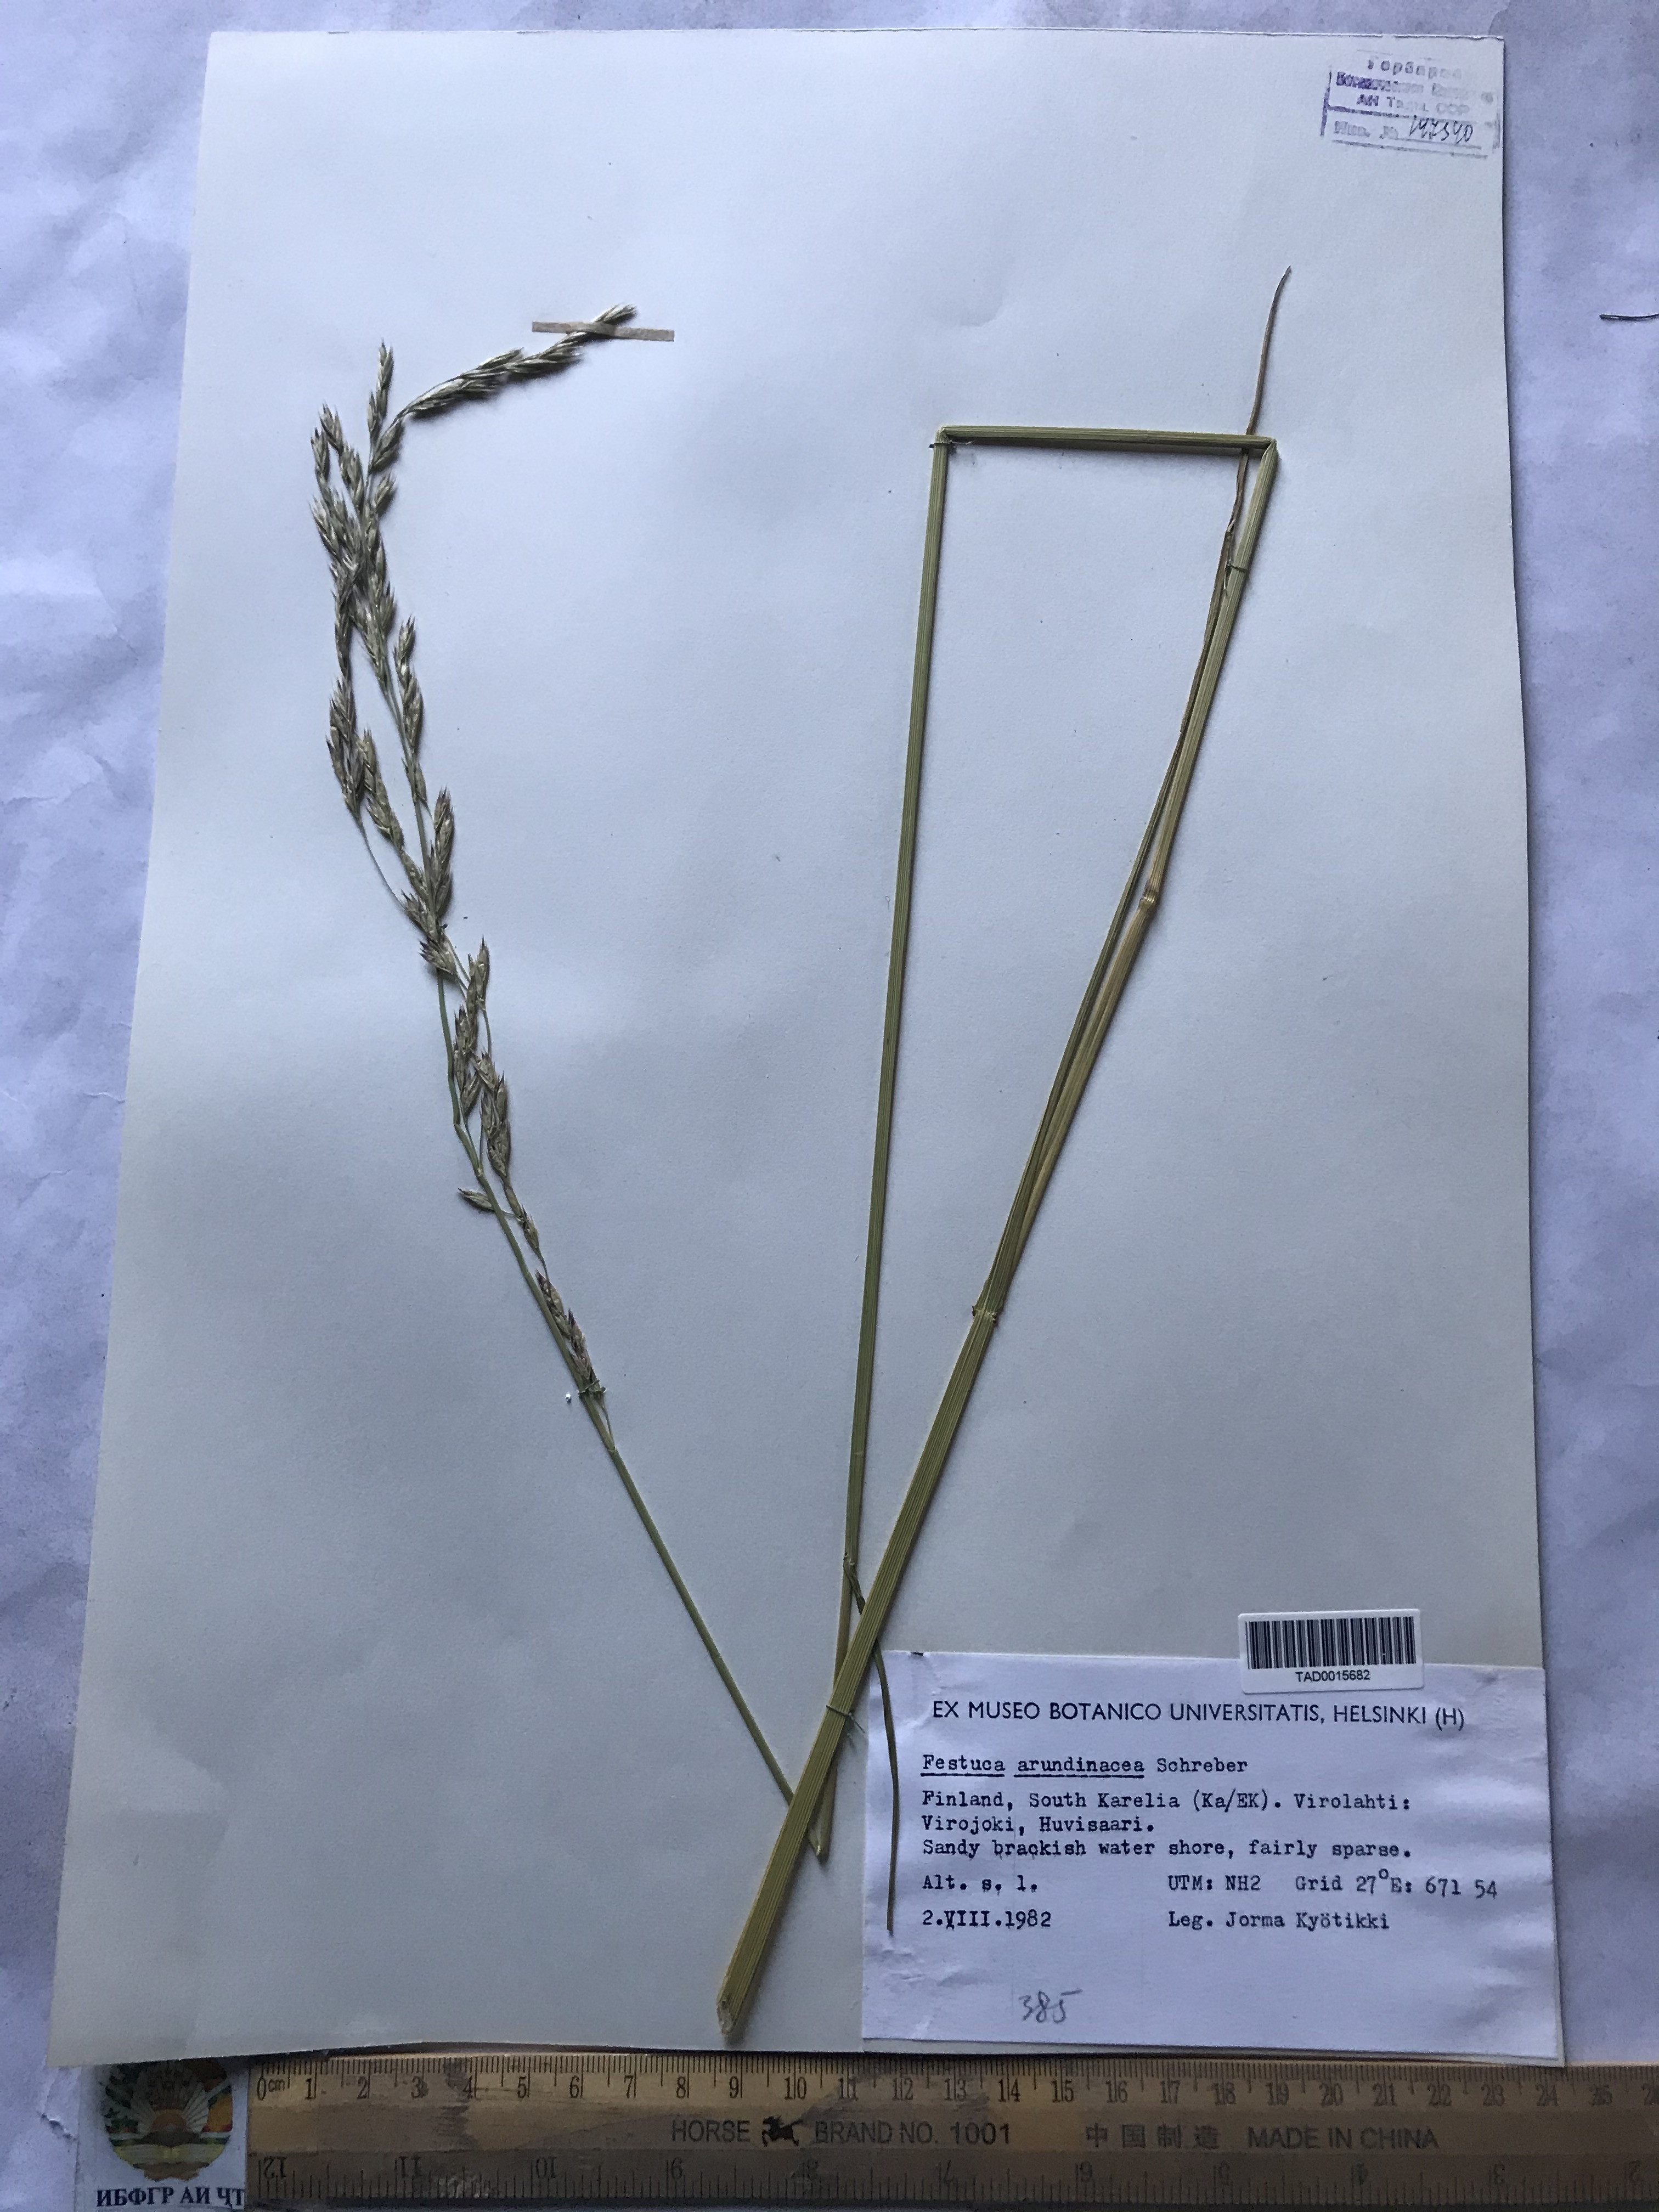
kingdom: Plantae
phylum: Tracheophyta
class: Liliopsida
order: Poales
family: Poaceae
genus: Lolium
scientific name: Lolium arundinaceum
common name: Reed fescue
